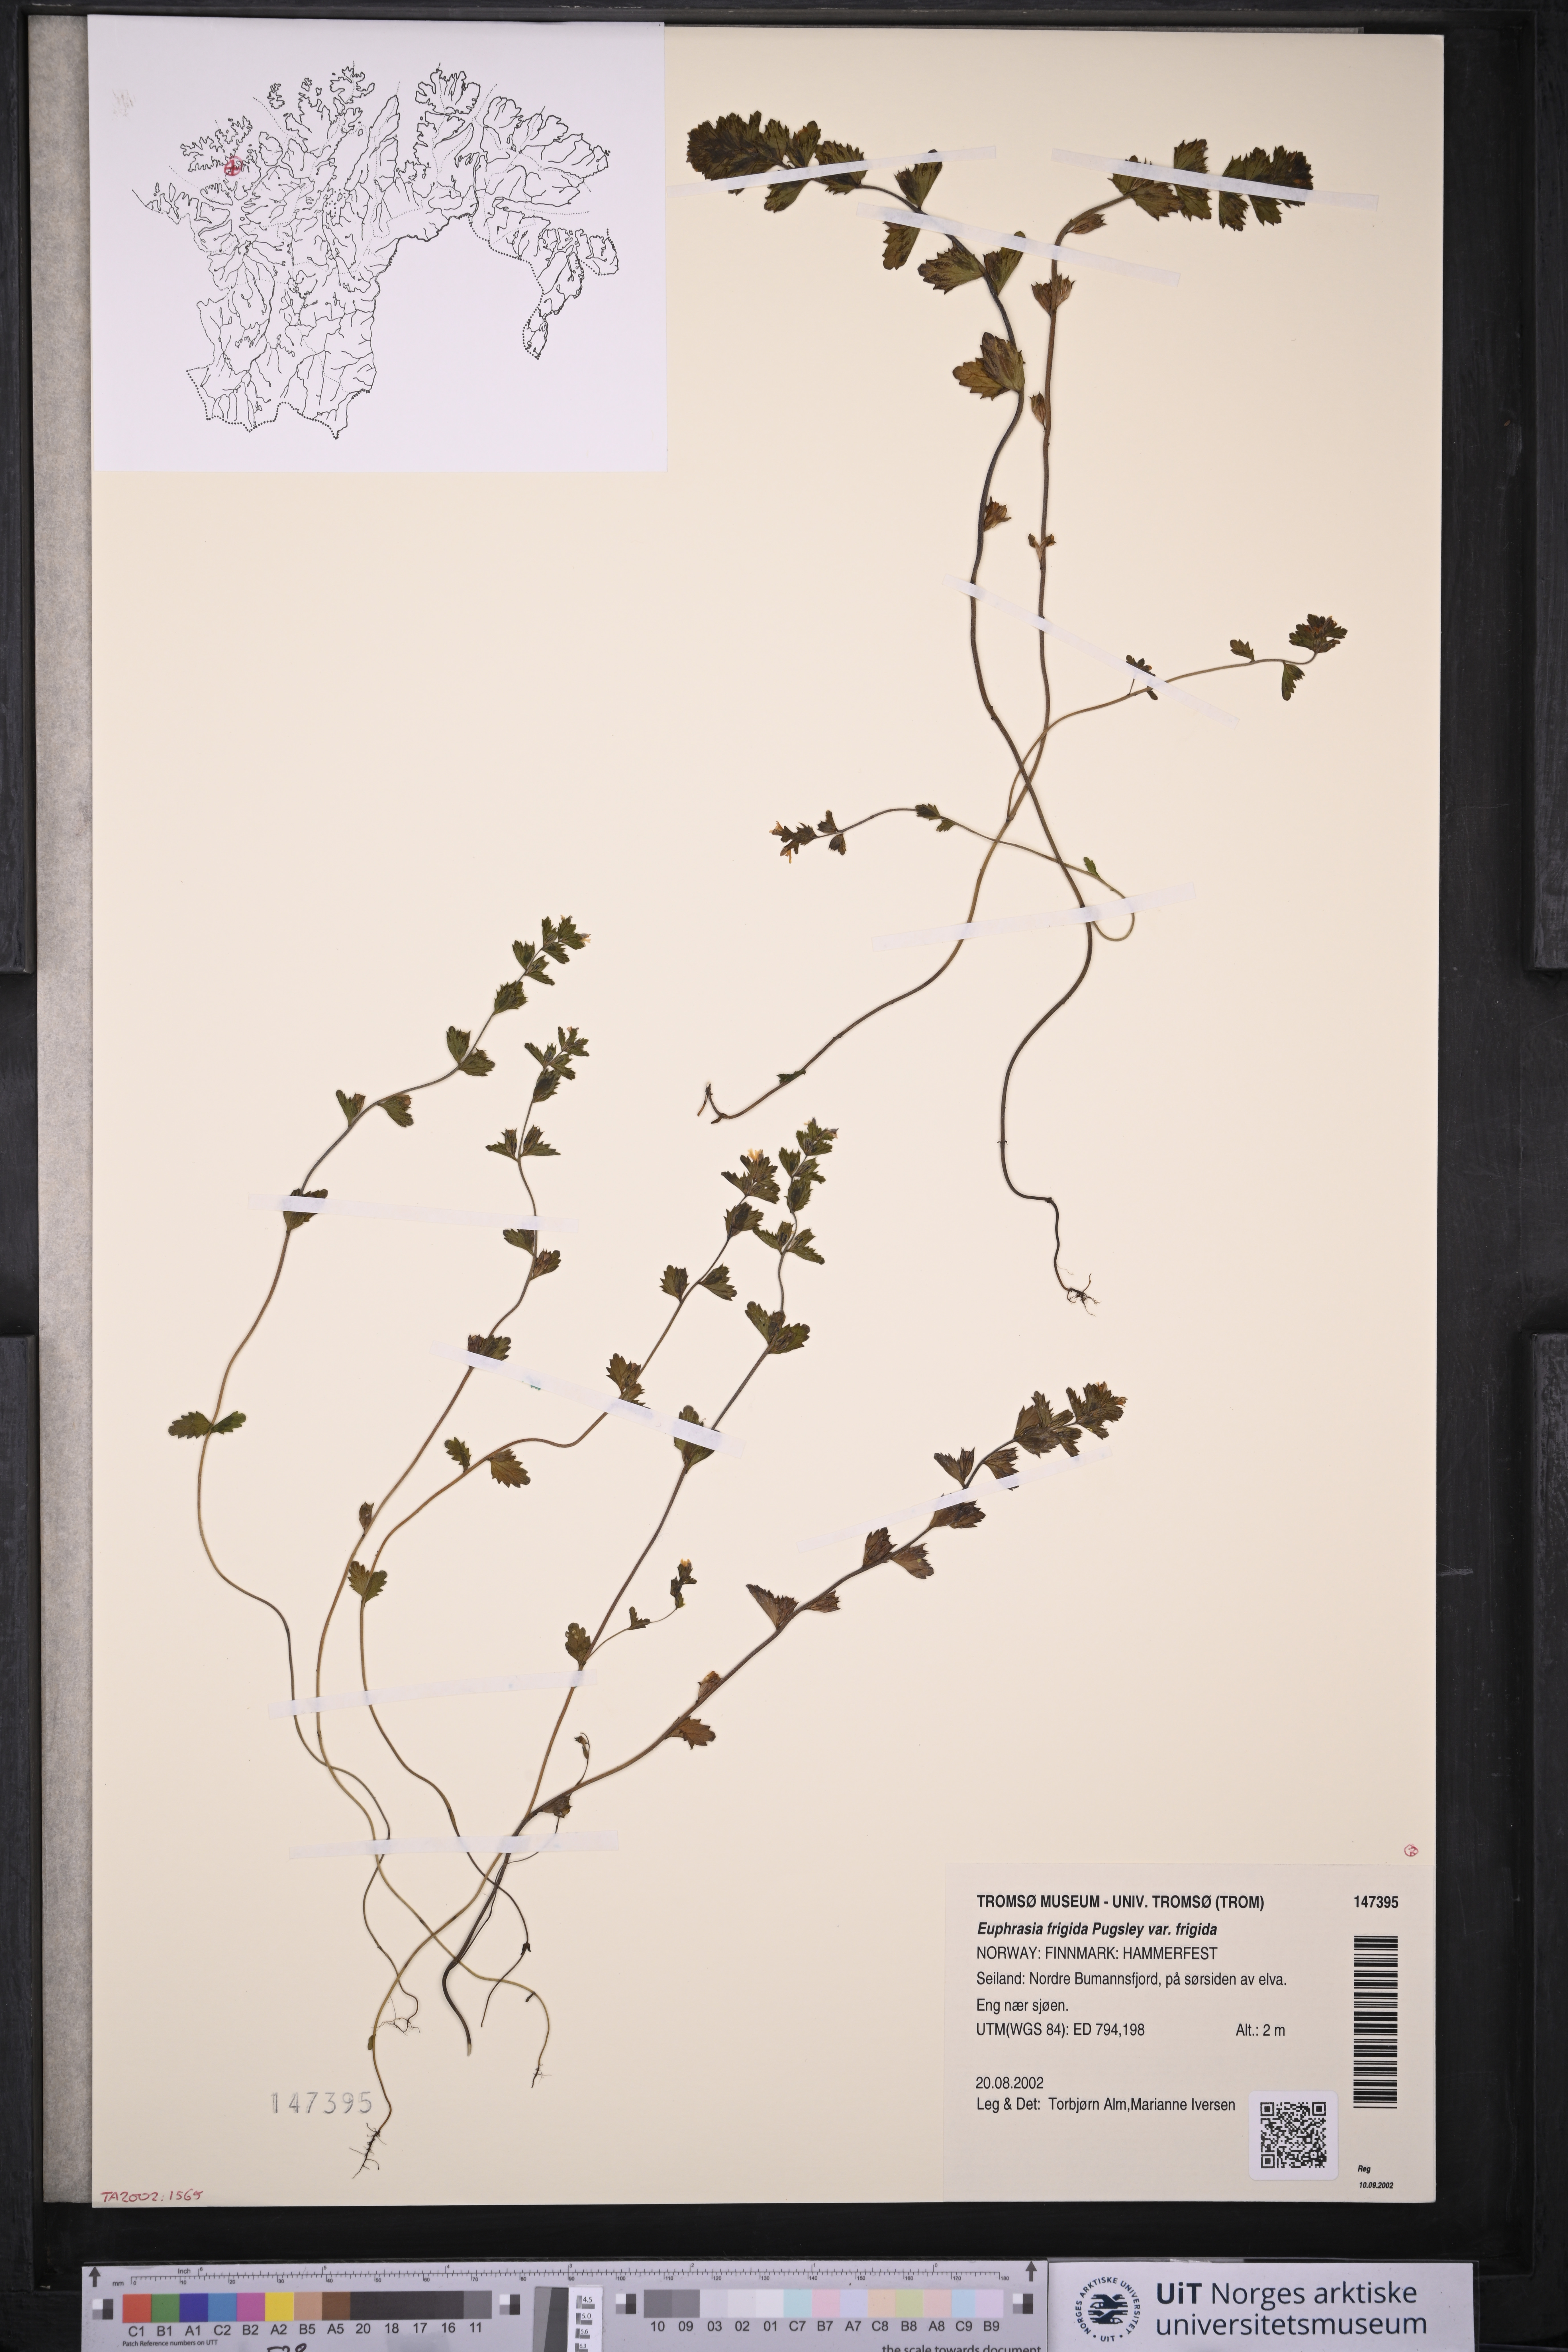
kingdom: Plantae
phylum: Tracheophyta
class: Magnoliopsida
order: Lamiales
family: Orobanchaceae
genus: Euphrasia
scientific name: Euphrasia wettsteinii
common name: Wettstein's eyebright
